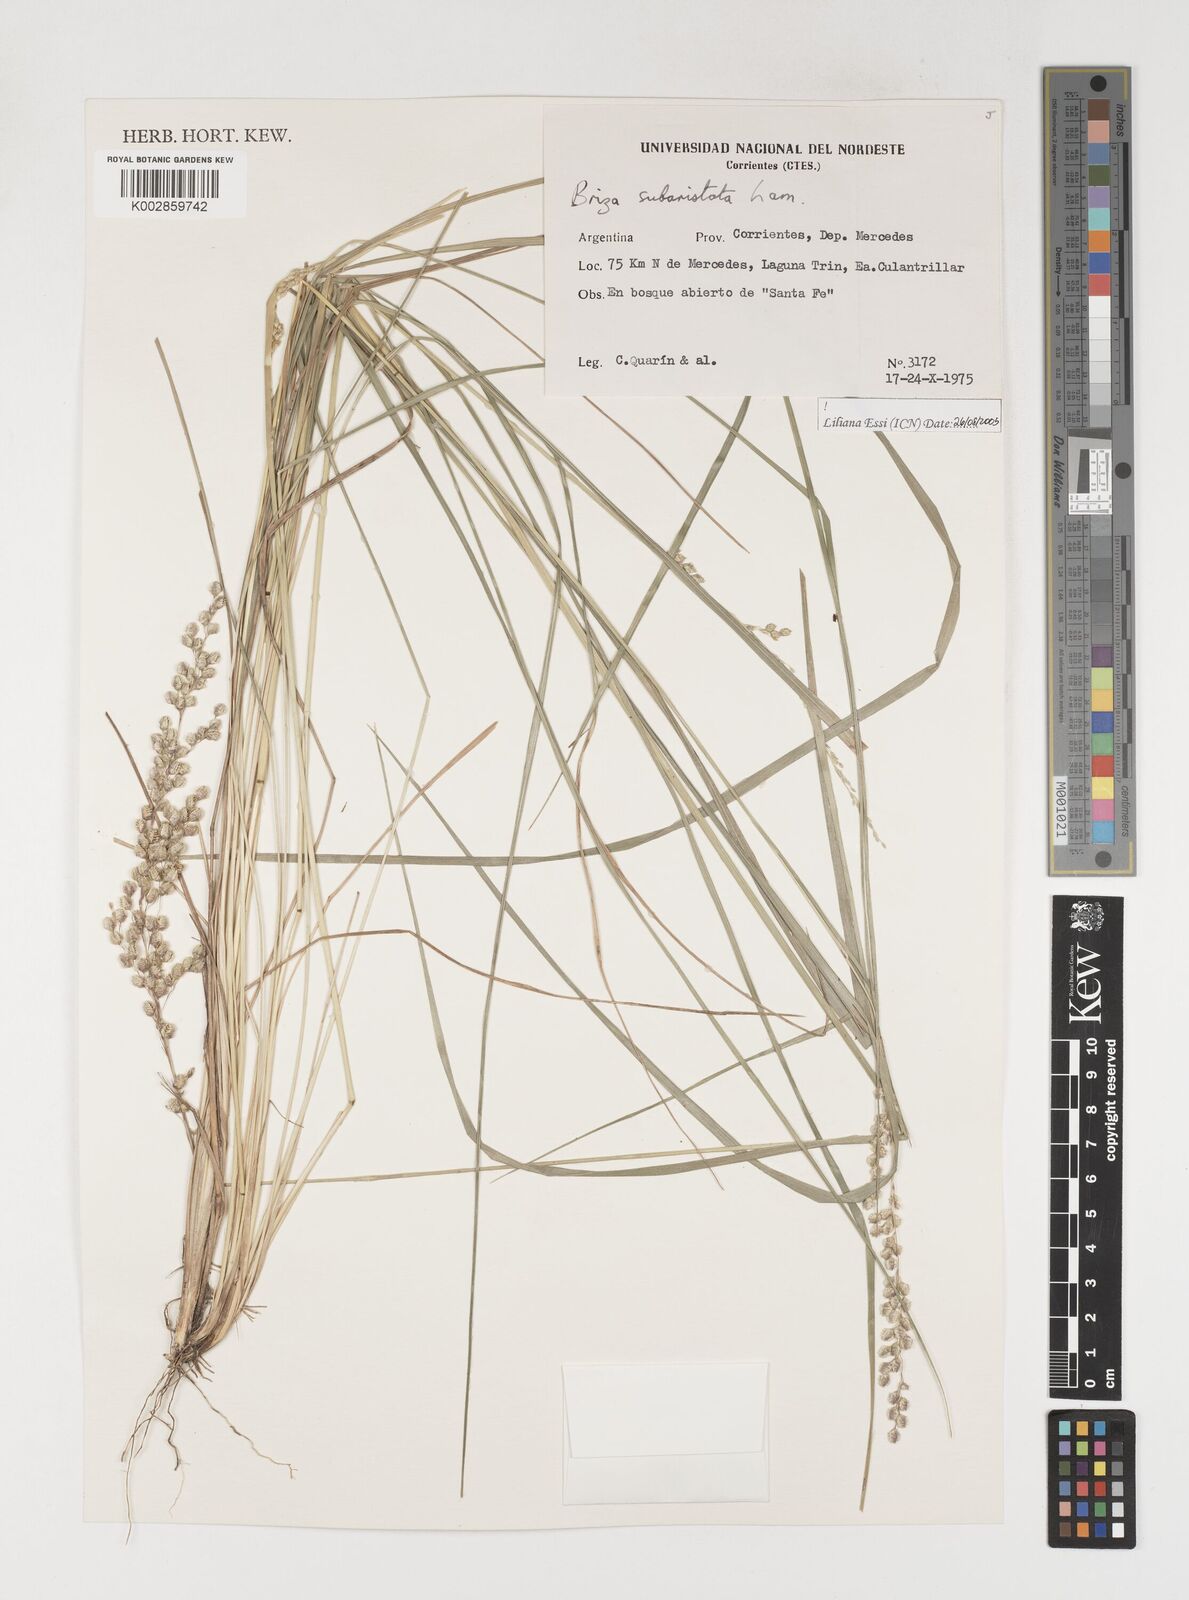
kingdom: Plantae
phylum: Tracheophyta
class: Liliopsida
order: Poales
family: Poaceae
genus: Chascolytrum
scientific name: Chascolytrum subaristatum
